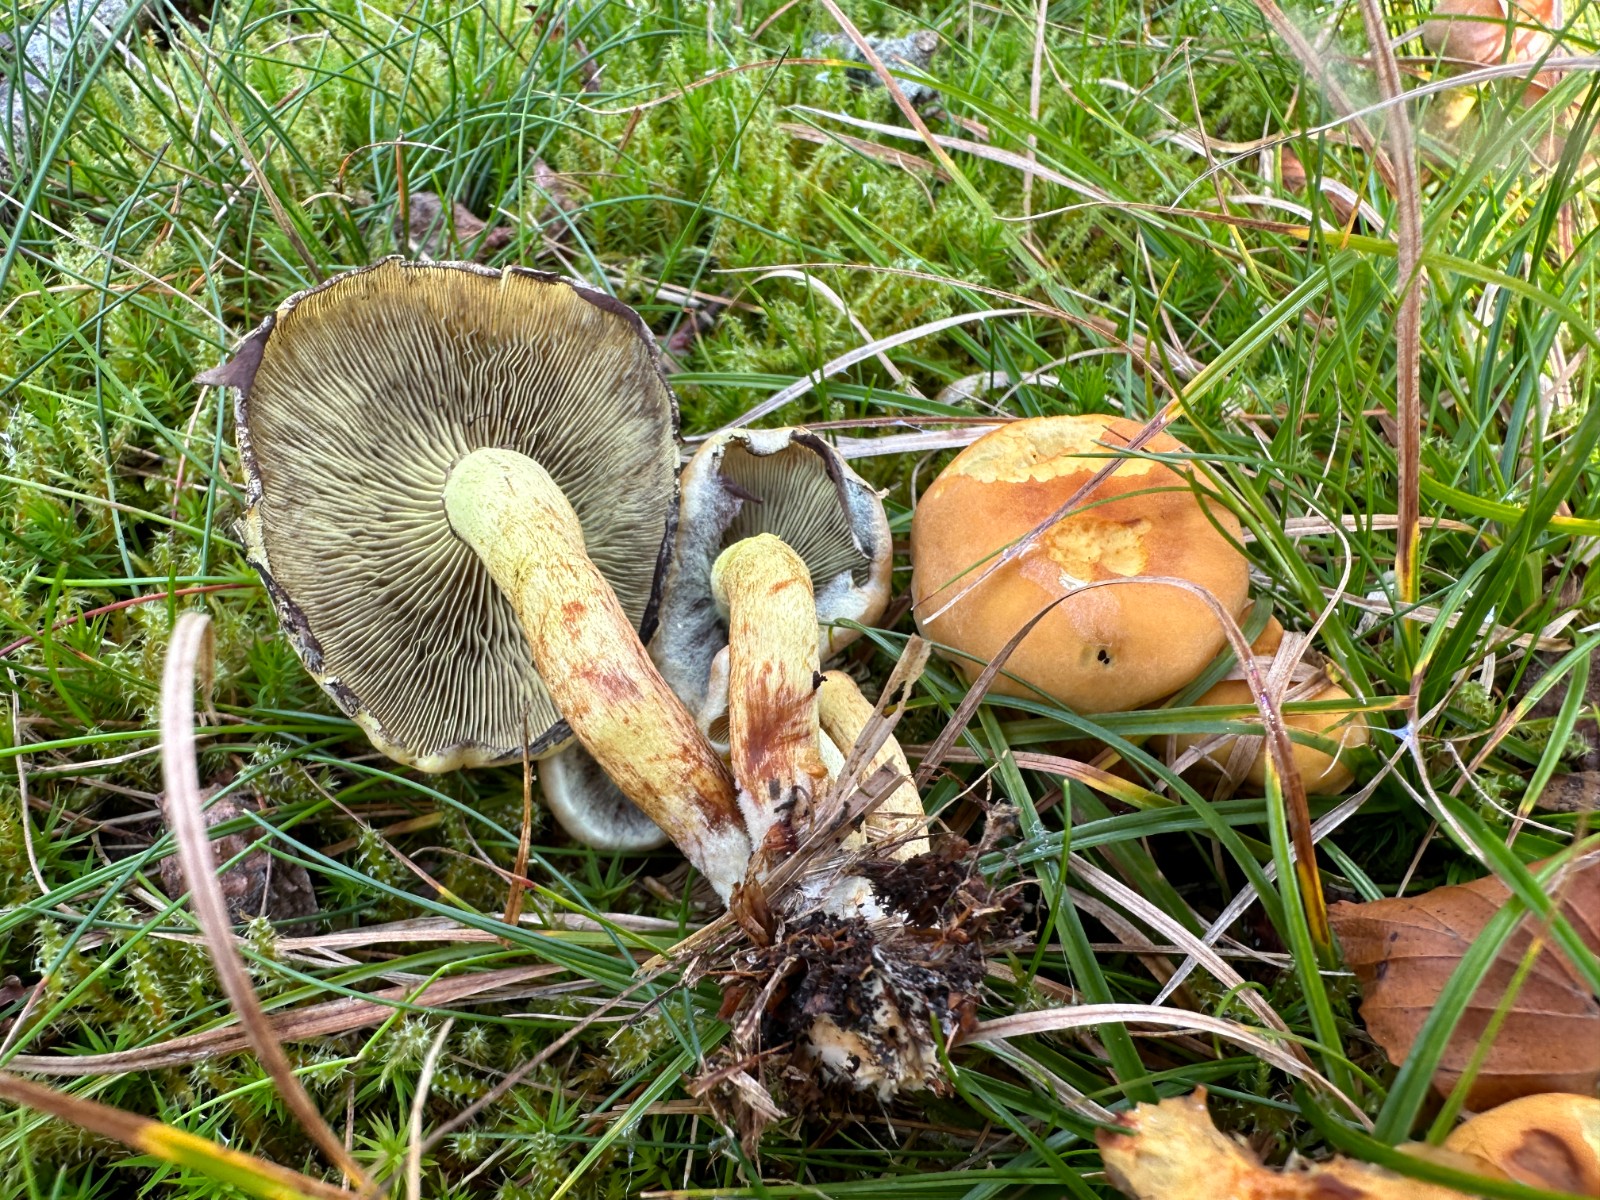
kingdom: Fungi
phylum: Basidiomycota
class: Agaricomycetes
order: Agaricales
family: Strophariaceae
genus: Hypholoma
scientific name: Hypholoma fasciculare
